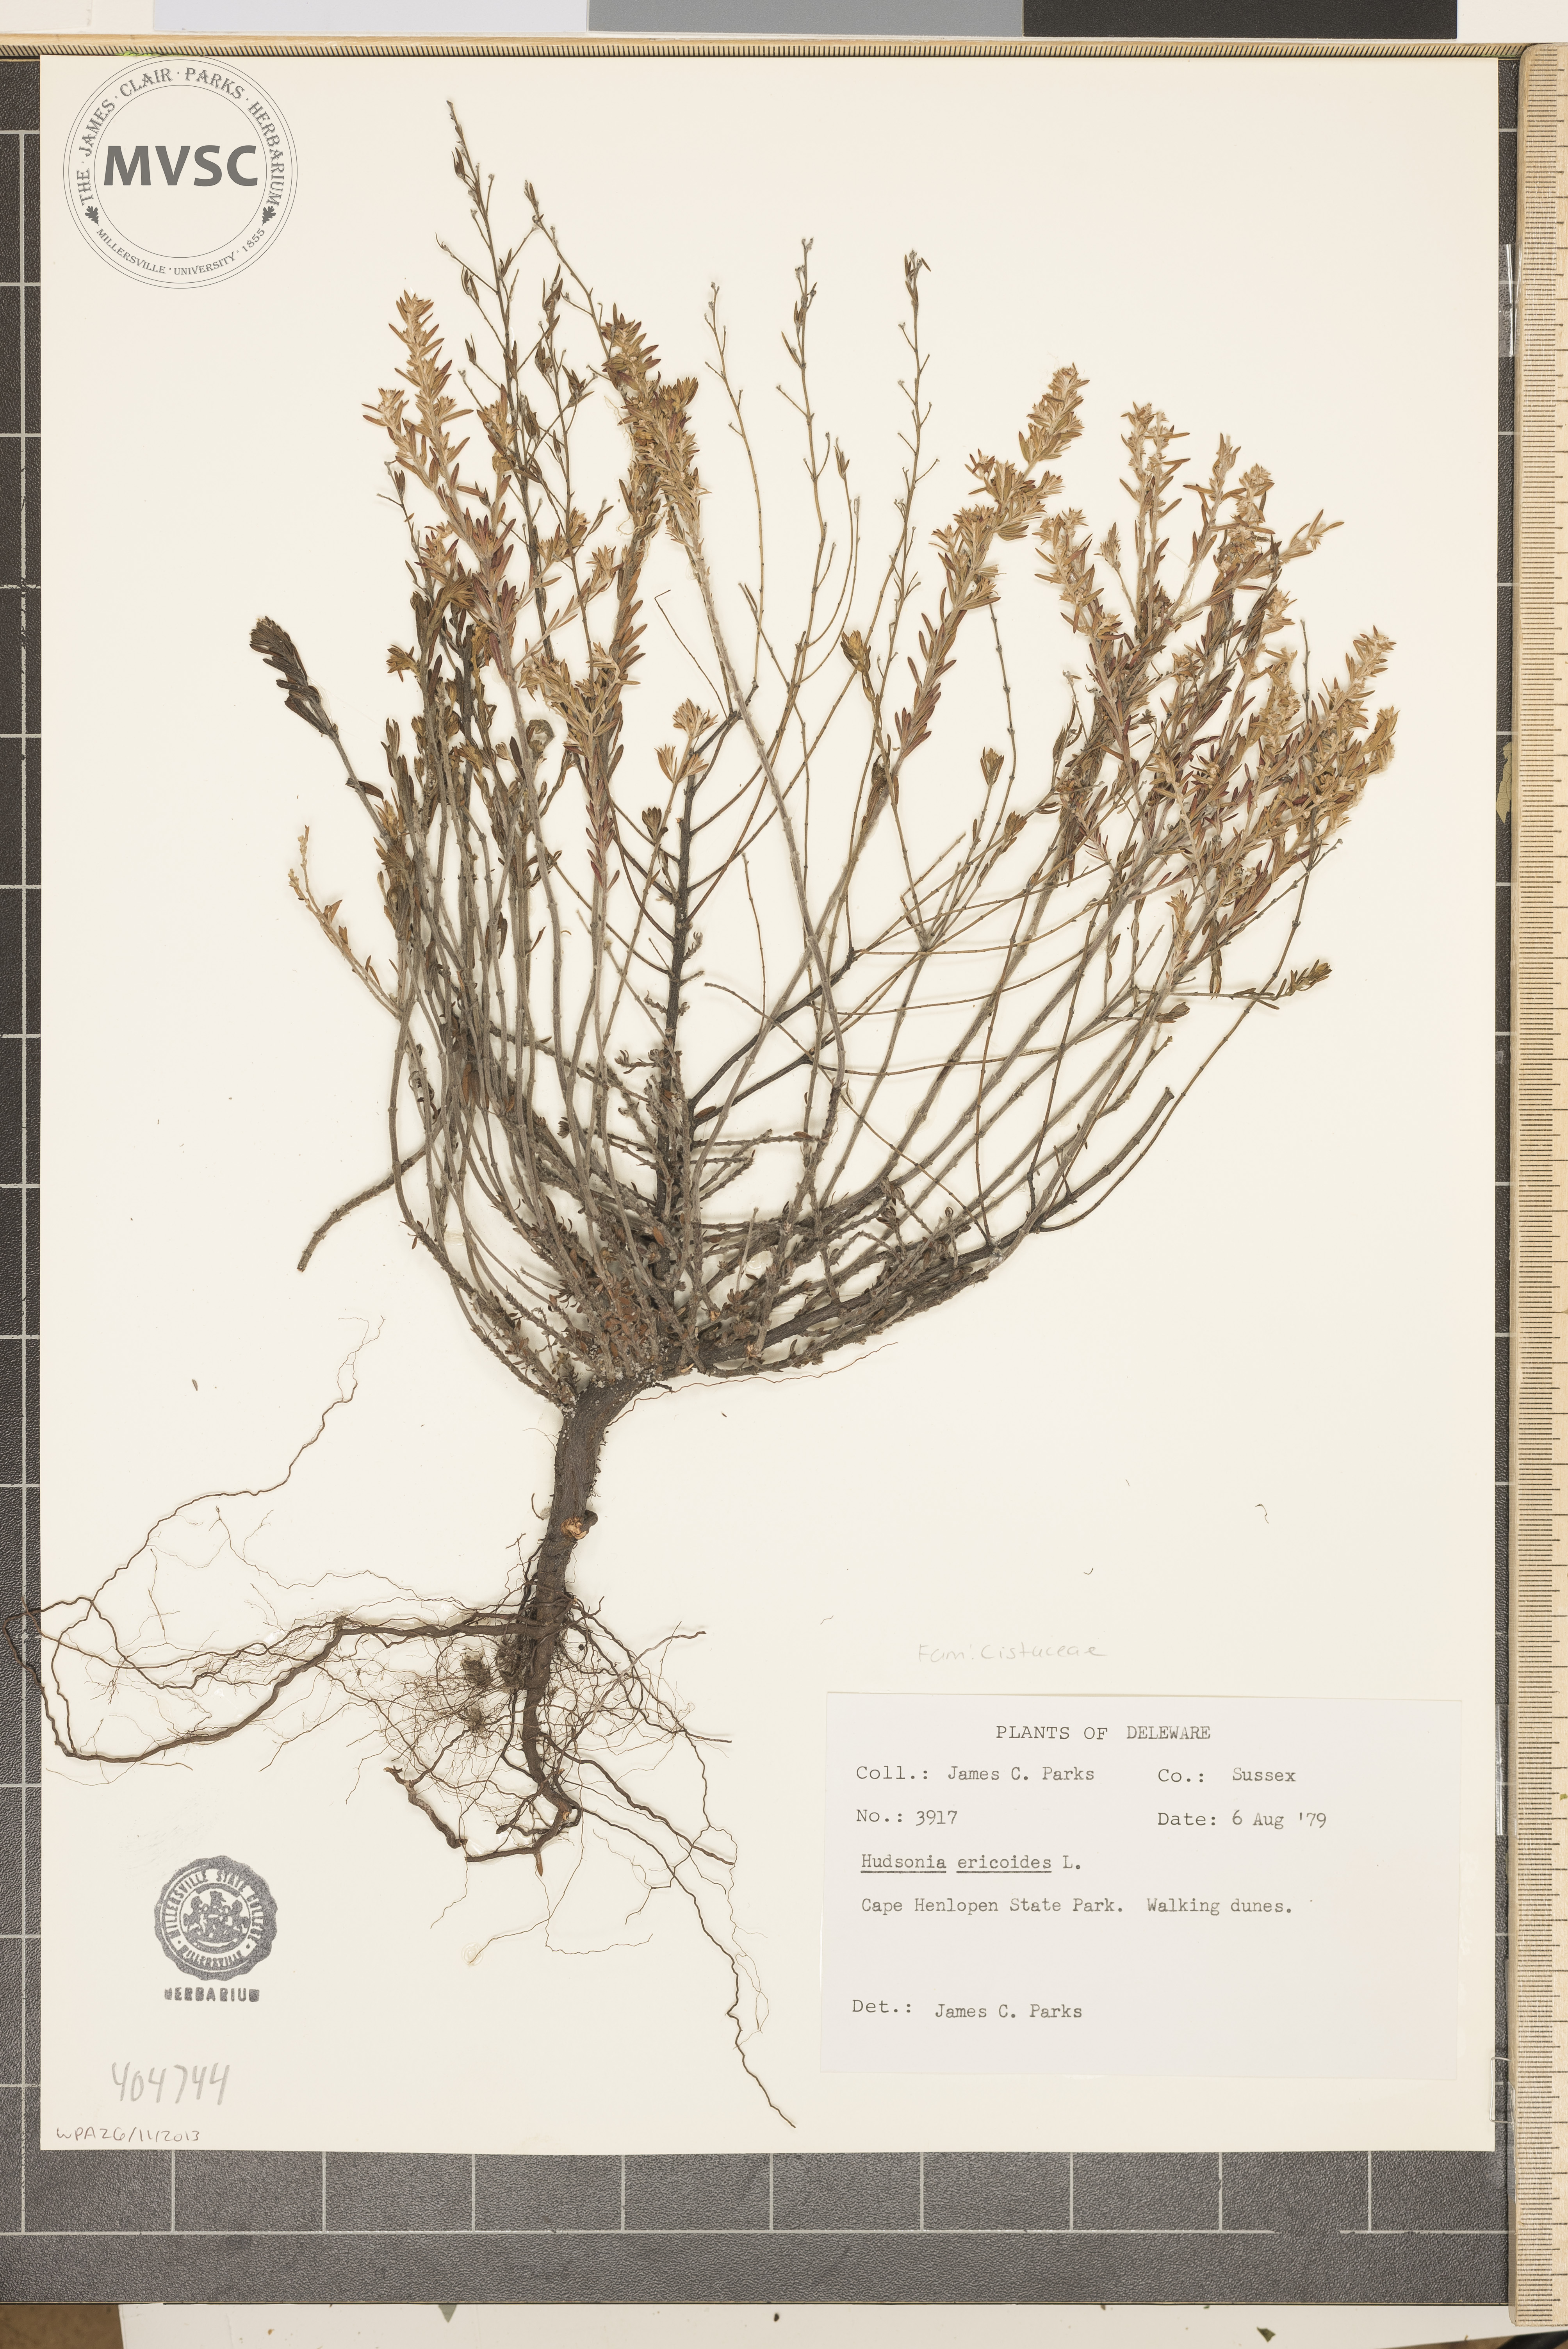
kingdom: Plantae
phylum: Tracheophyta
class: Magnoliopsida
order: Malvales
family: Cistaceae
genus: Hudsonia
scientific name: Hudsonia ericoides
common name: Golden-heather
